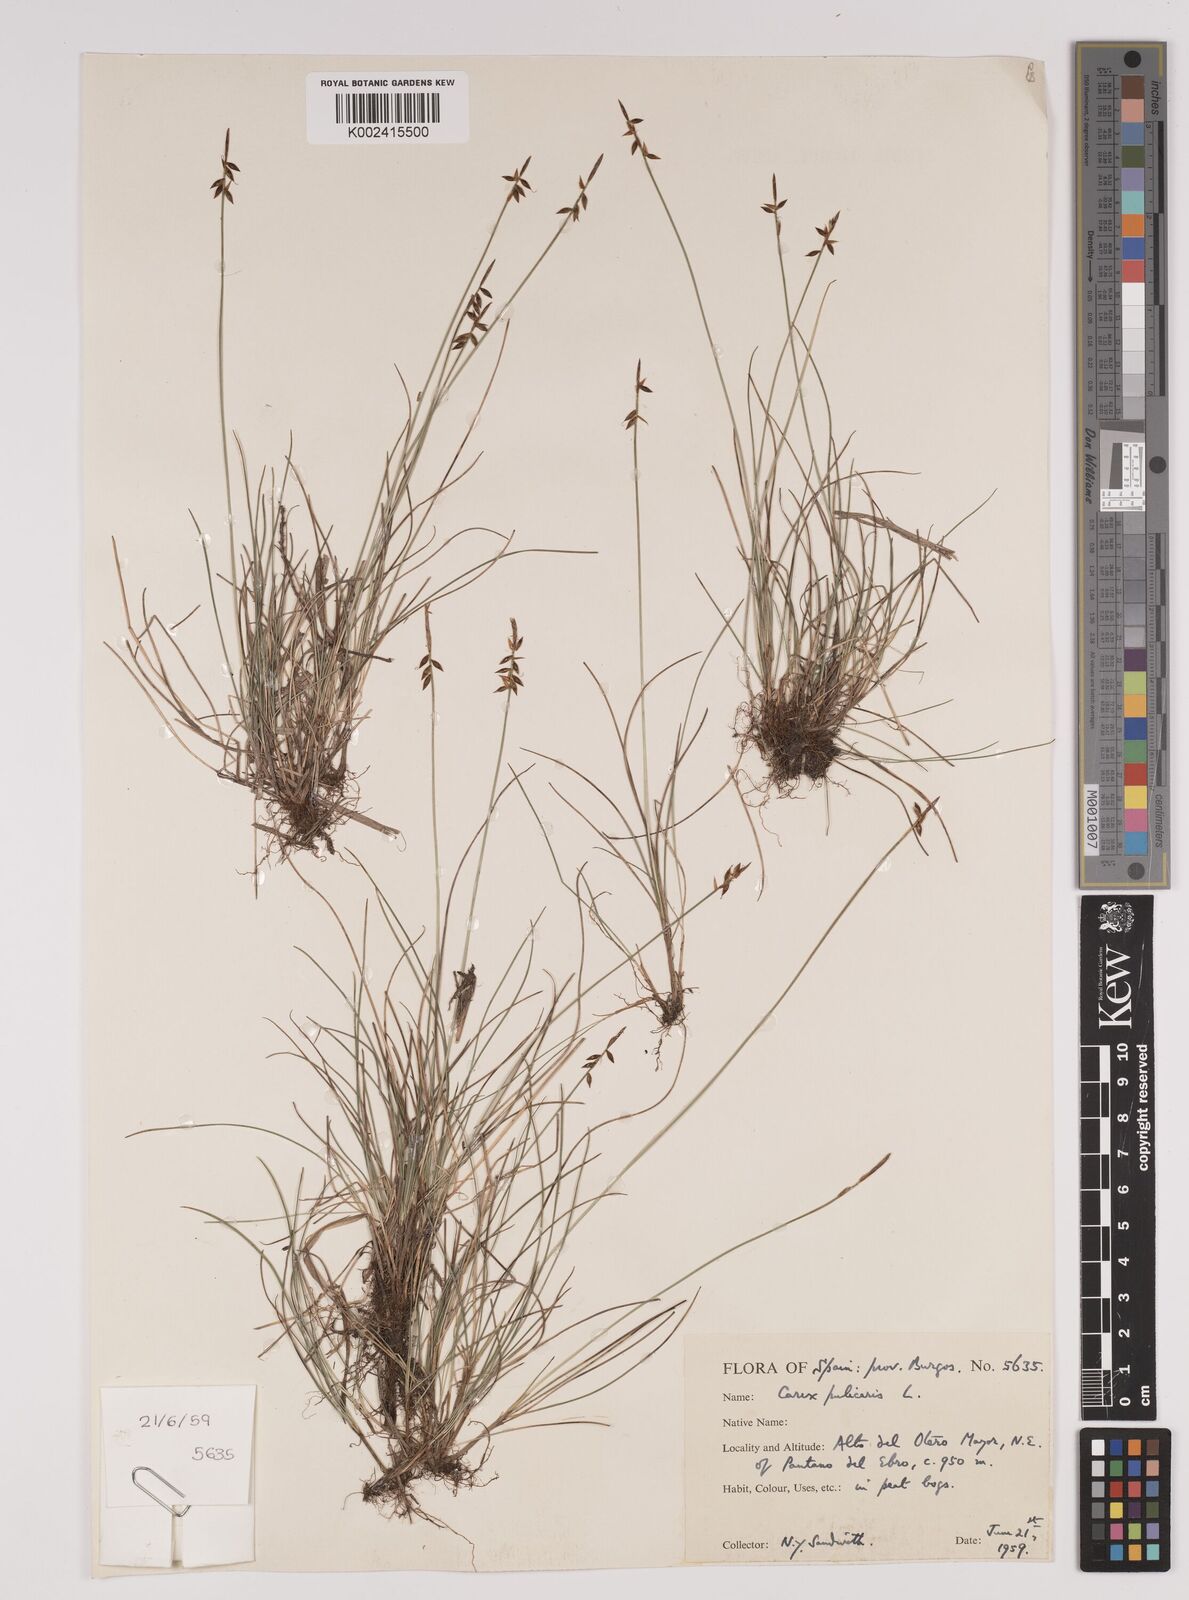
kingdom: Plantae
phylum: Tracheophyta
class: Liliopsida
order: Poales
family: Cyperaceae
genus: Carex
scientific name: Carex pulicaris
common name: Flea sedge
